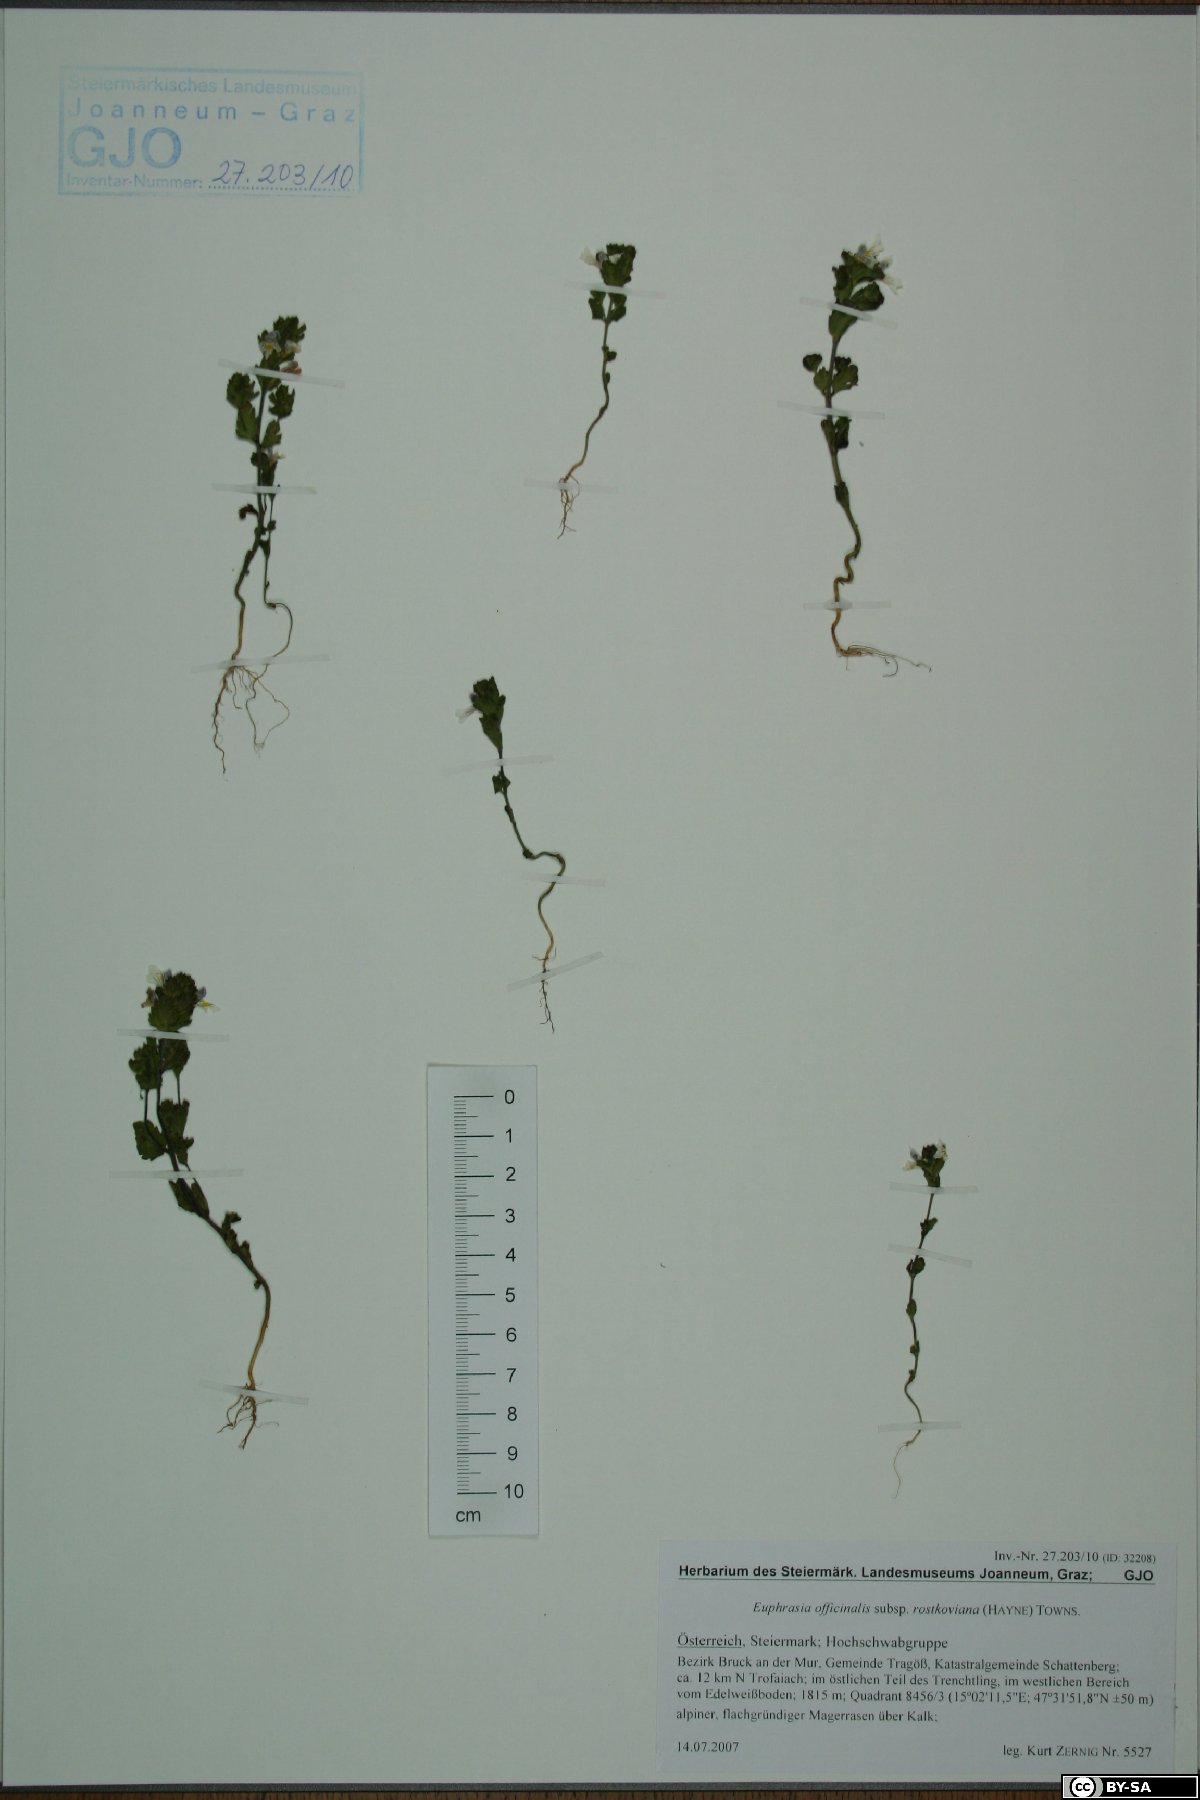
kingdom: Plantae
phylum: Tracheophyta
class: Magnoliopsida
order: Lamiales
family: Orobanchaceae
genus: Euphrasia
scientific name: Euphrasia officinalis
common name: Eyebright
